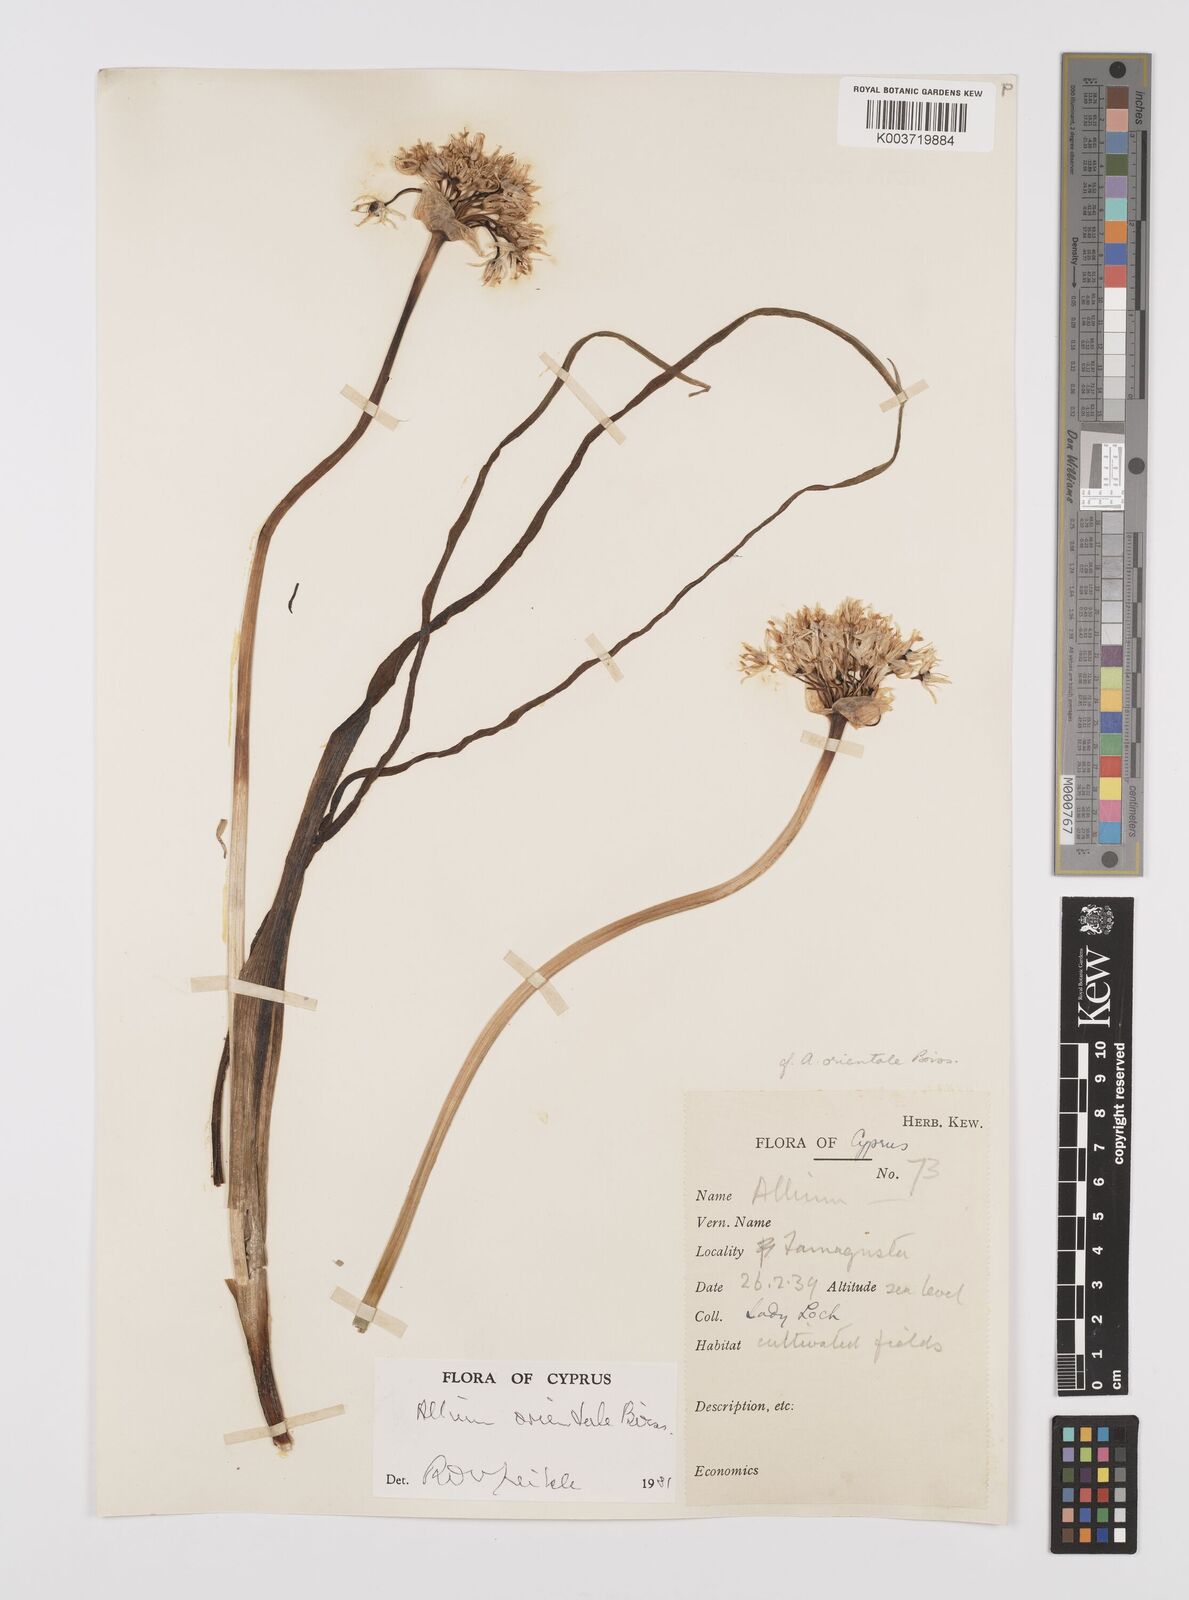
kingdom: Plantae
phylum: Tracheophyta
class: Liliopsida
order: Asparagales
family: Amaryllidaceae
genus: Allium
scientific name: Allium orientale
